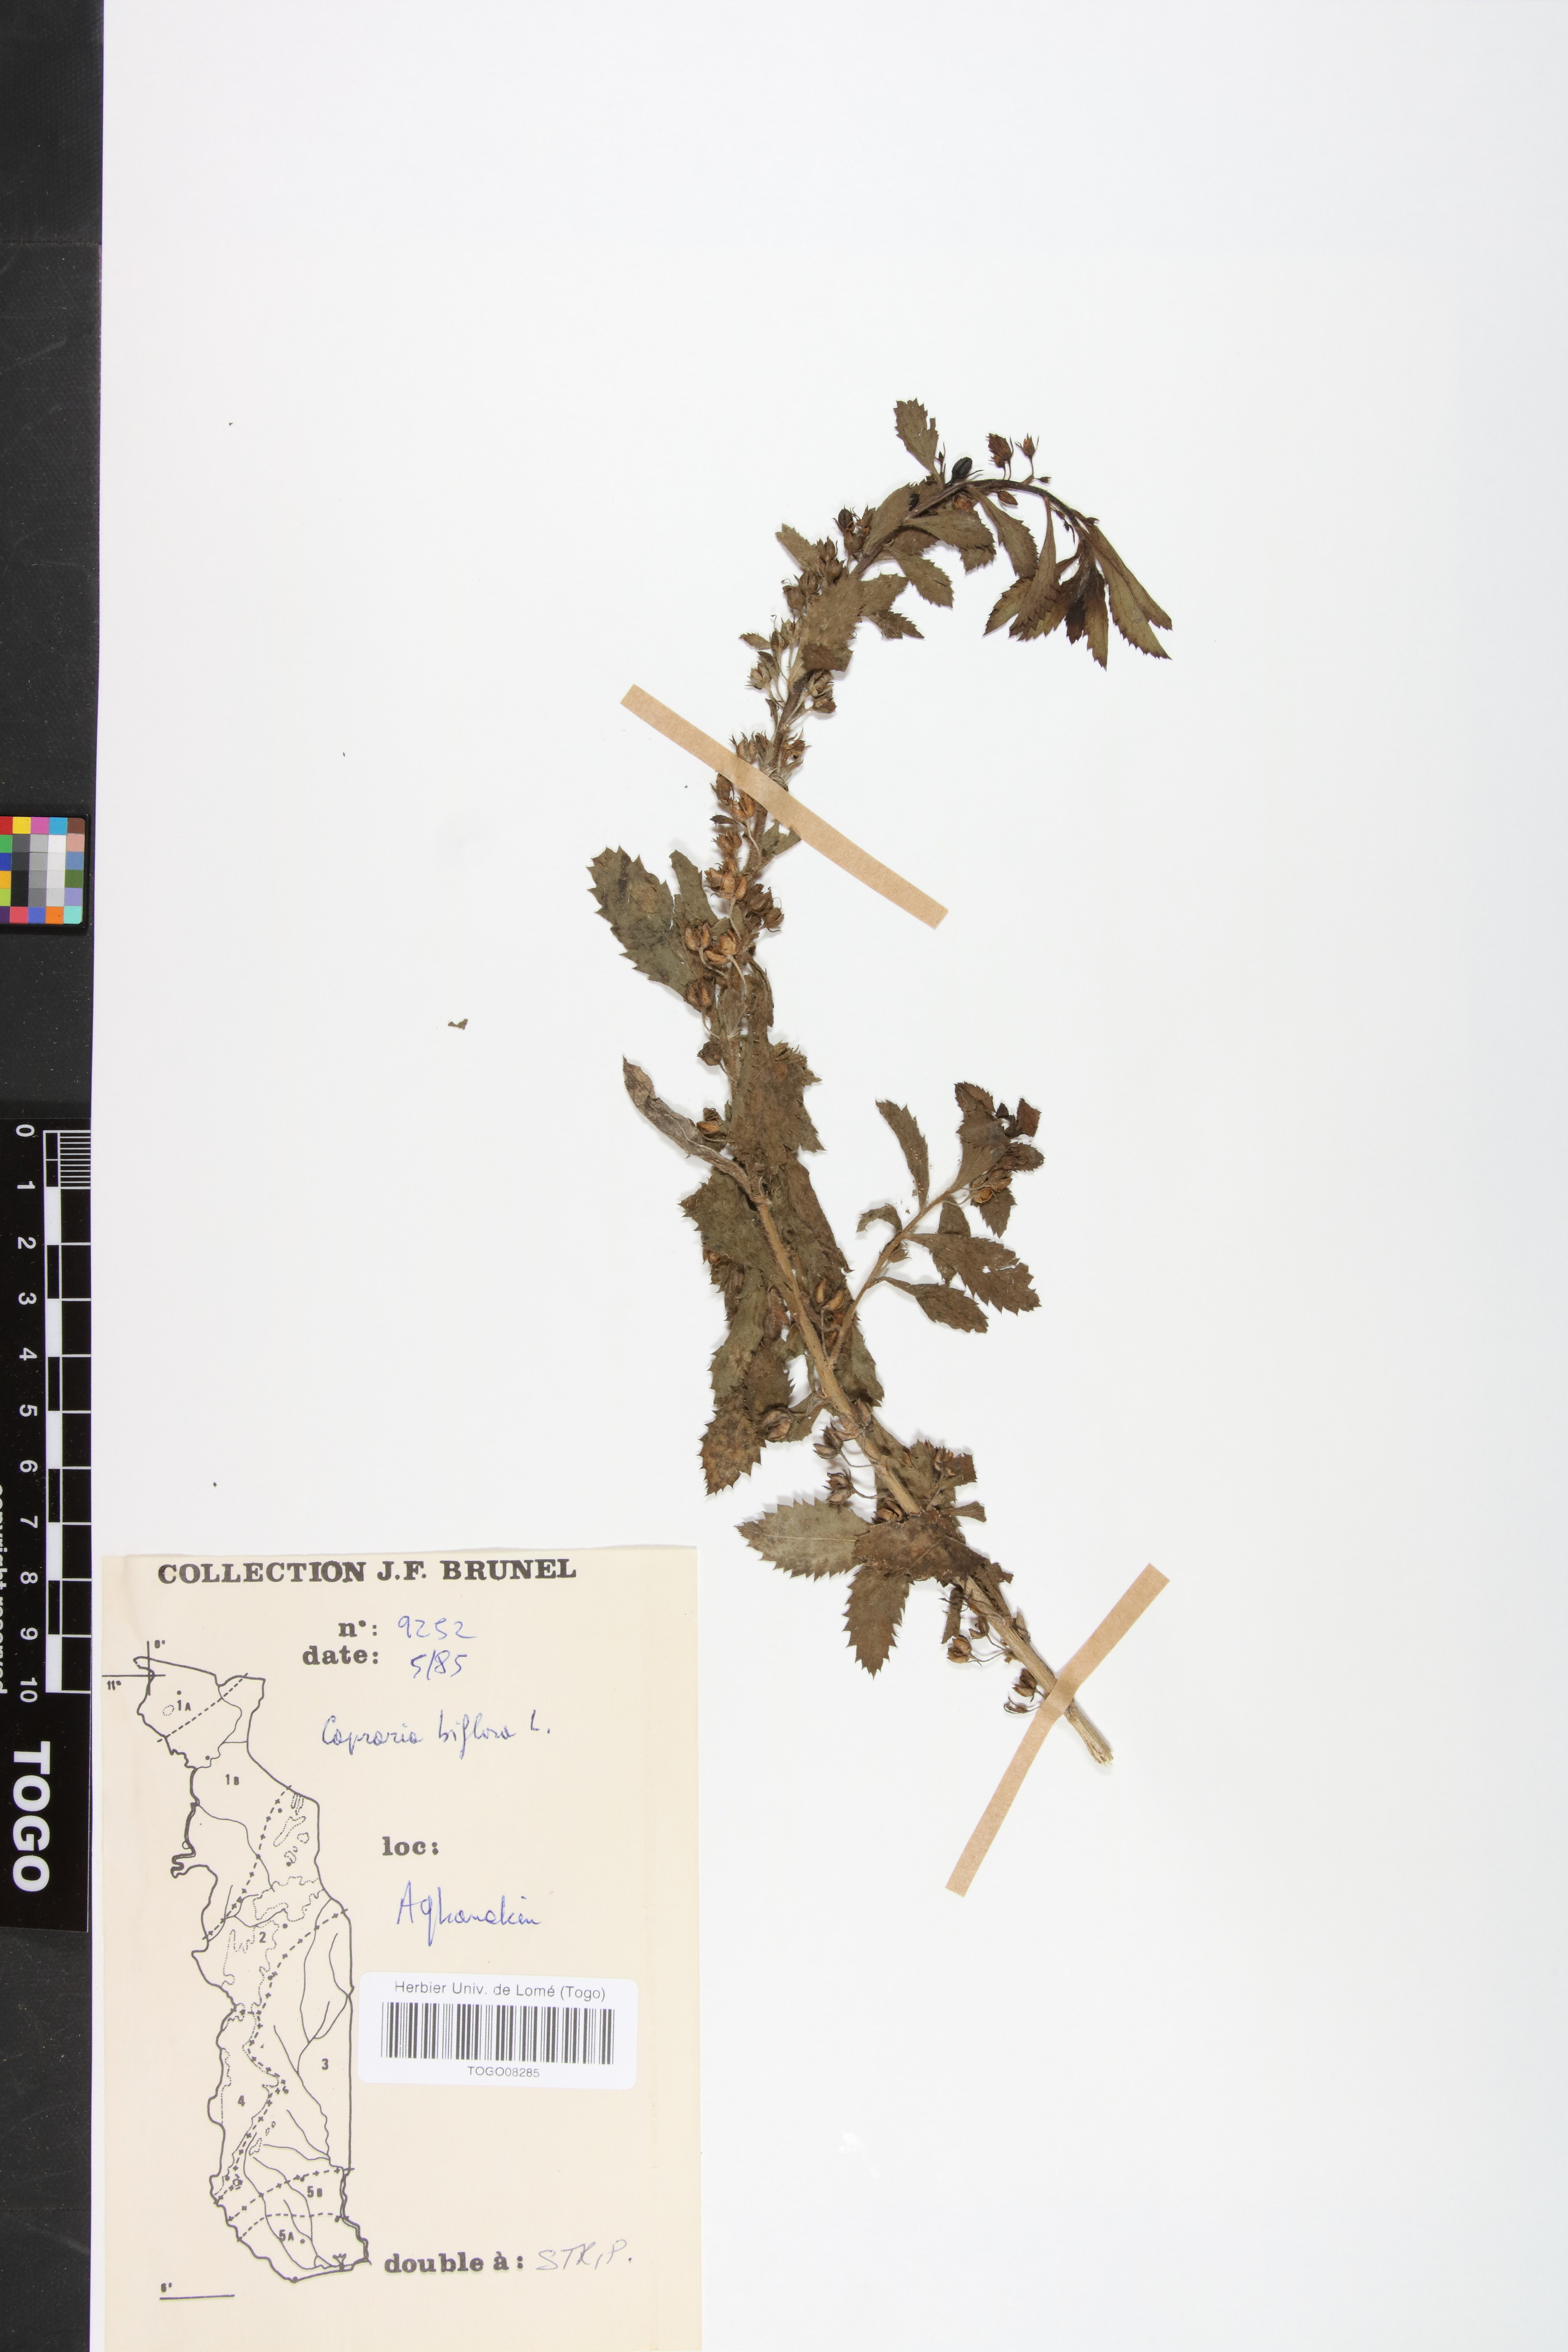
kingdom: Plantae
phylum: Tracheophyta
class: Magnoliopsida
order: Lamiales
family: Scrophulariaceae
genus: Capraria
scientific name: Capraria biflora
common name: Goatweed
